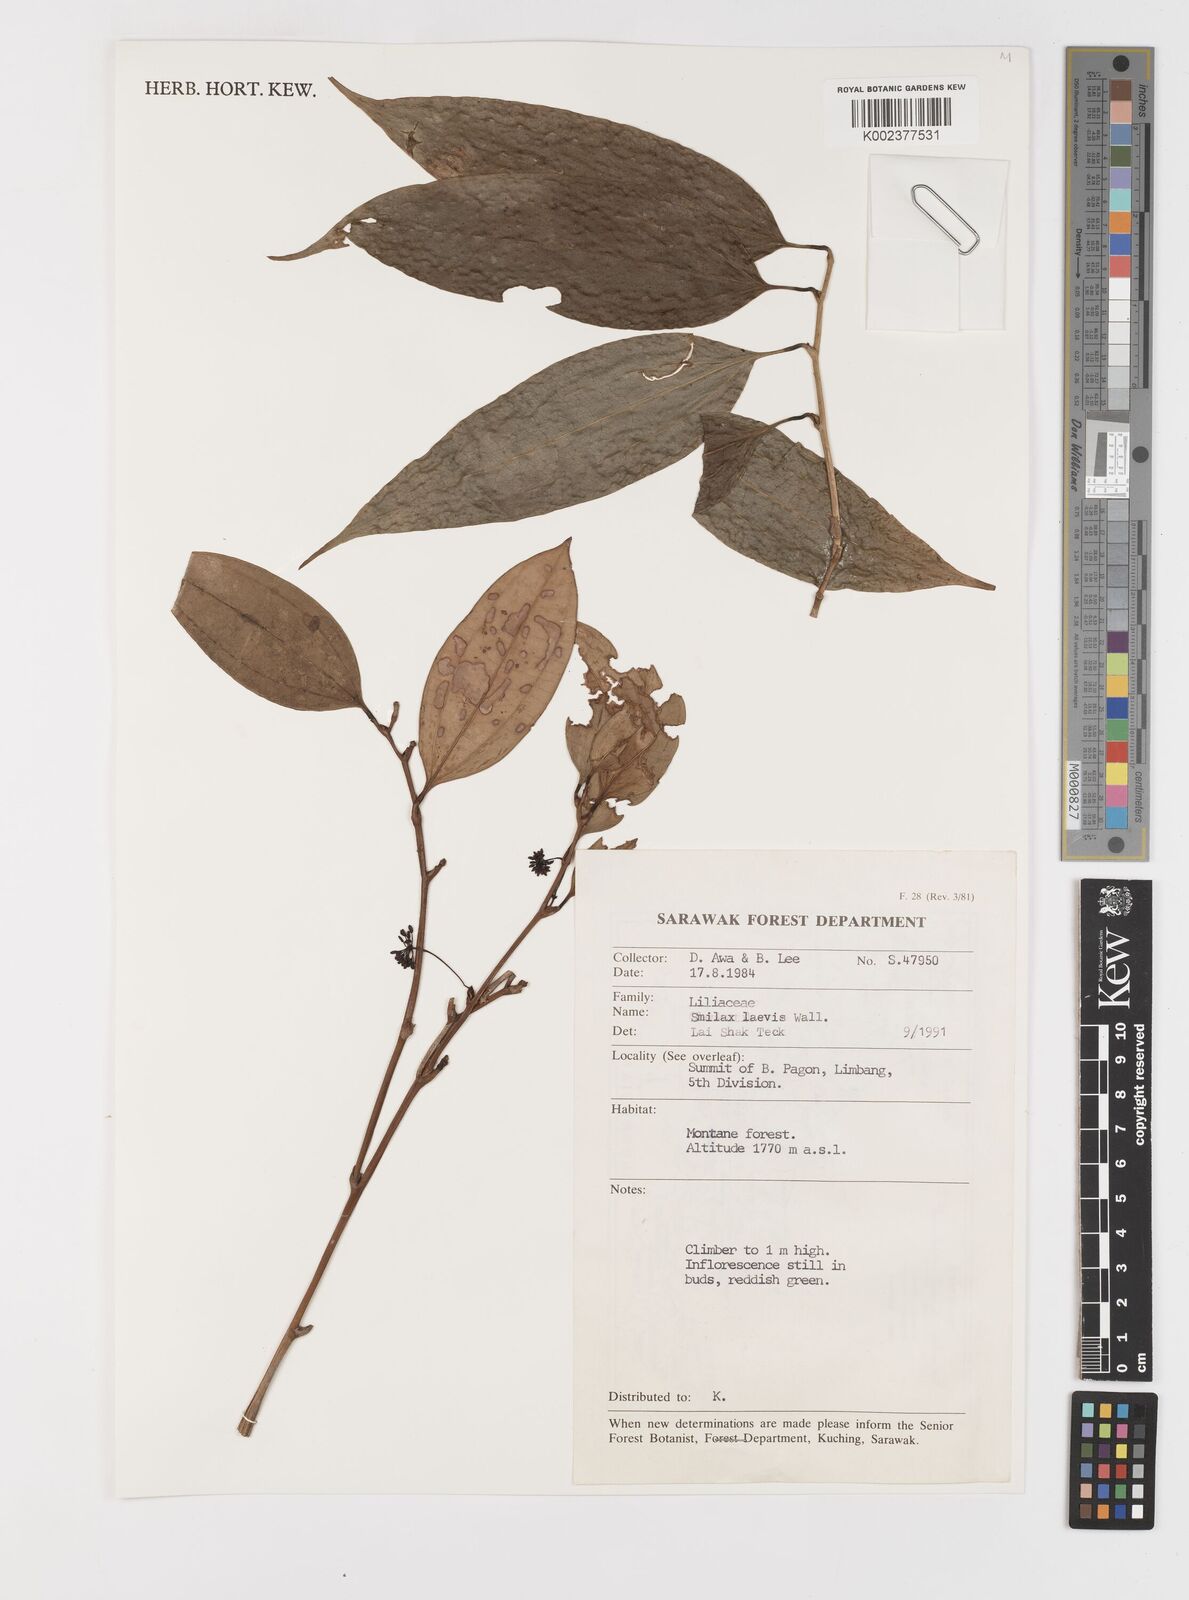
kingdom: Plantae
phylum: Tracheophyta
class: Liliopsida
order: Liliales
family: Smilacaceae
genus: Smilax
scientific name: Smilax laevis
